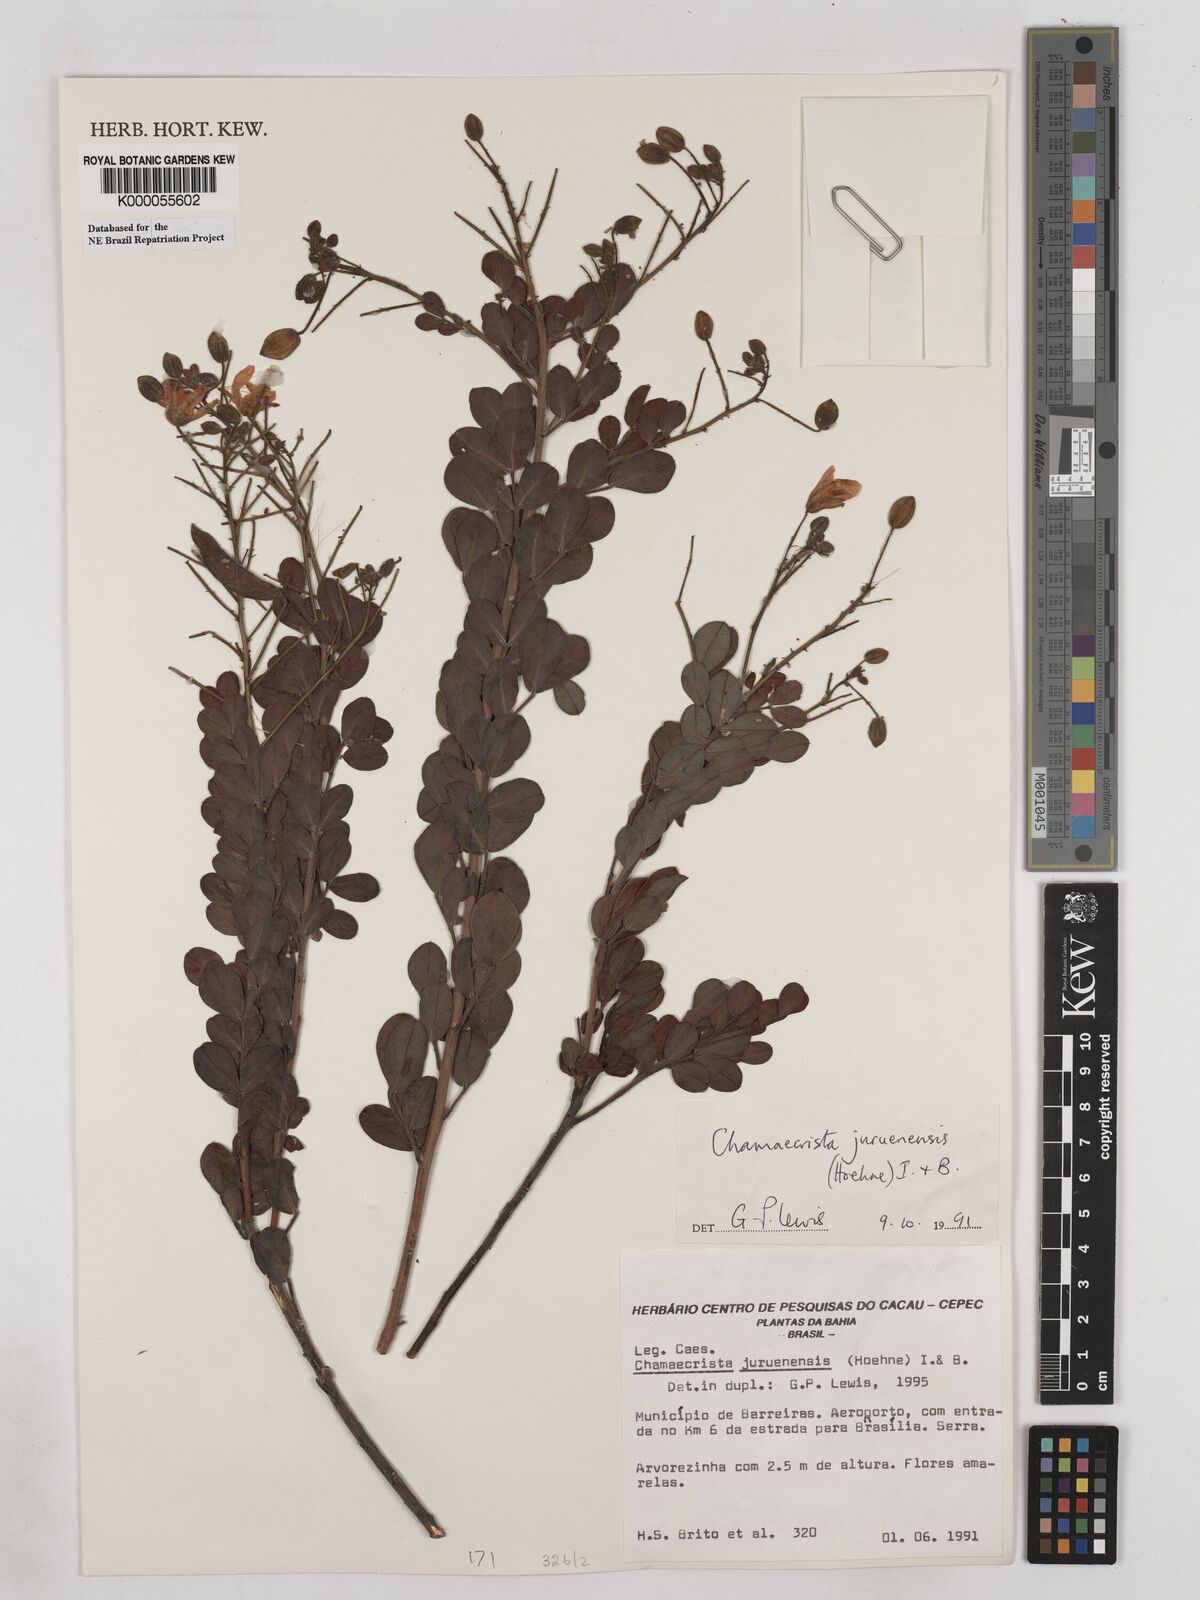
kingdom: Plantae
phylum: Tracheophyta
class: Magnoliopsida
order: Fabales
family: Fabaceae
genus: Chamaecrista
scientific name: Chamaecrista juruenensis
